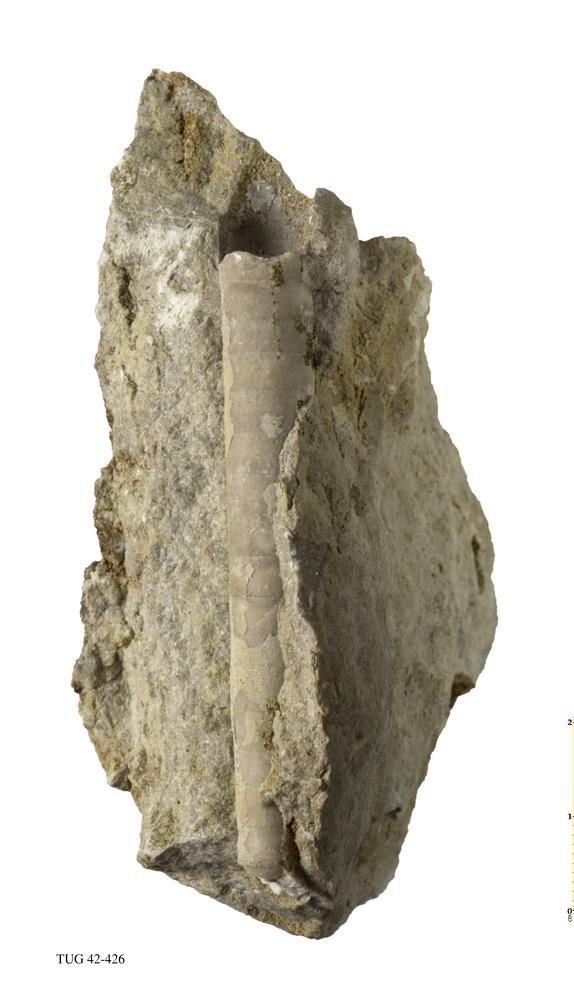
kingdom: Animalia
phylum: Mollusca
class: Cephalopoda
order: Orthocerida
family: Orthoceratidae
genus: Orthoceras
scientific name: Orthoceras
